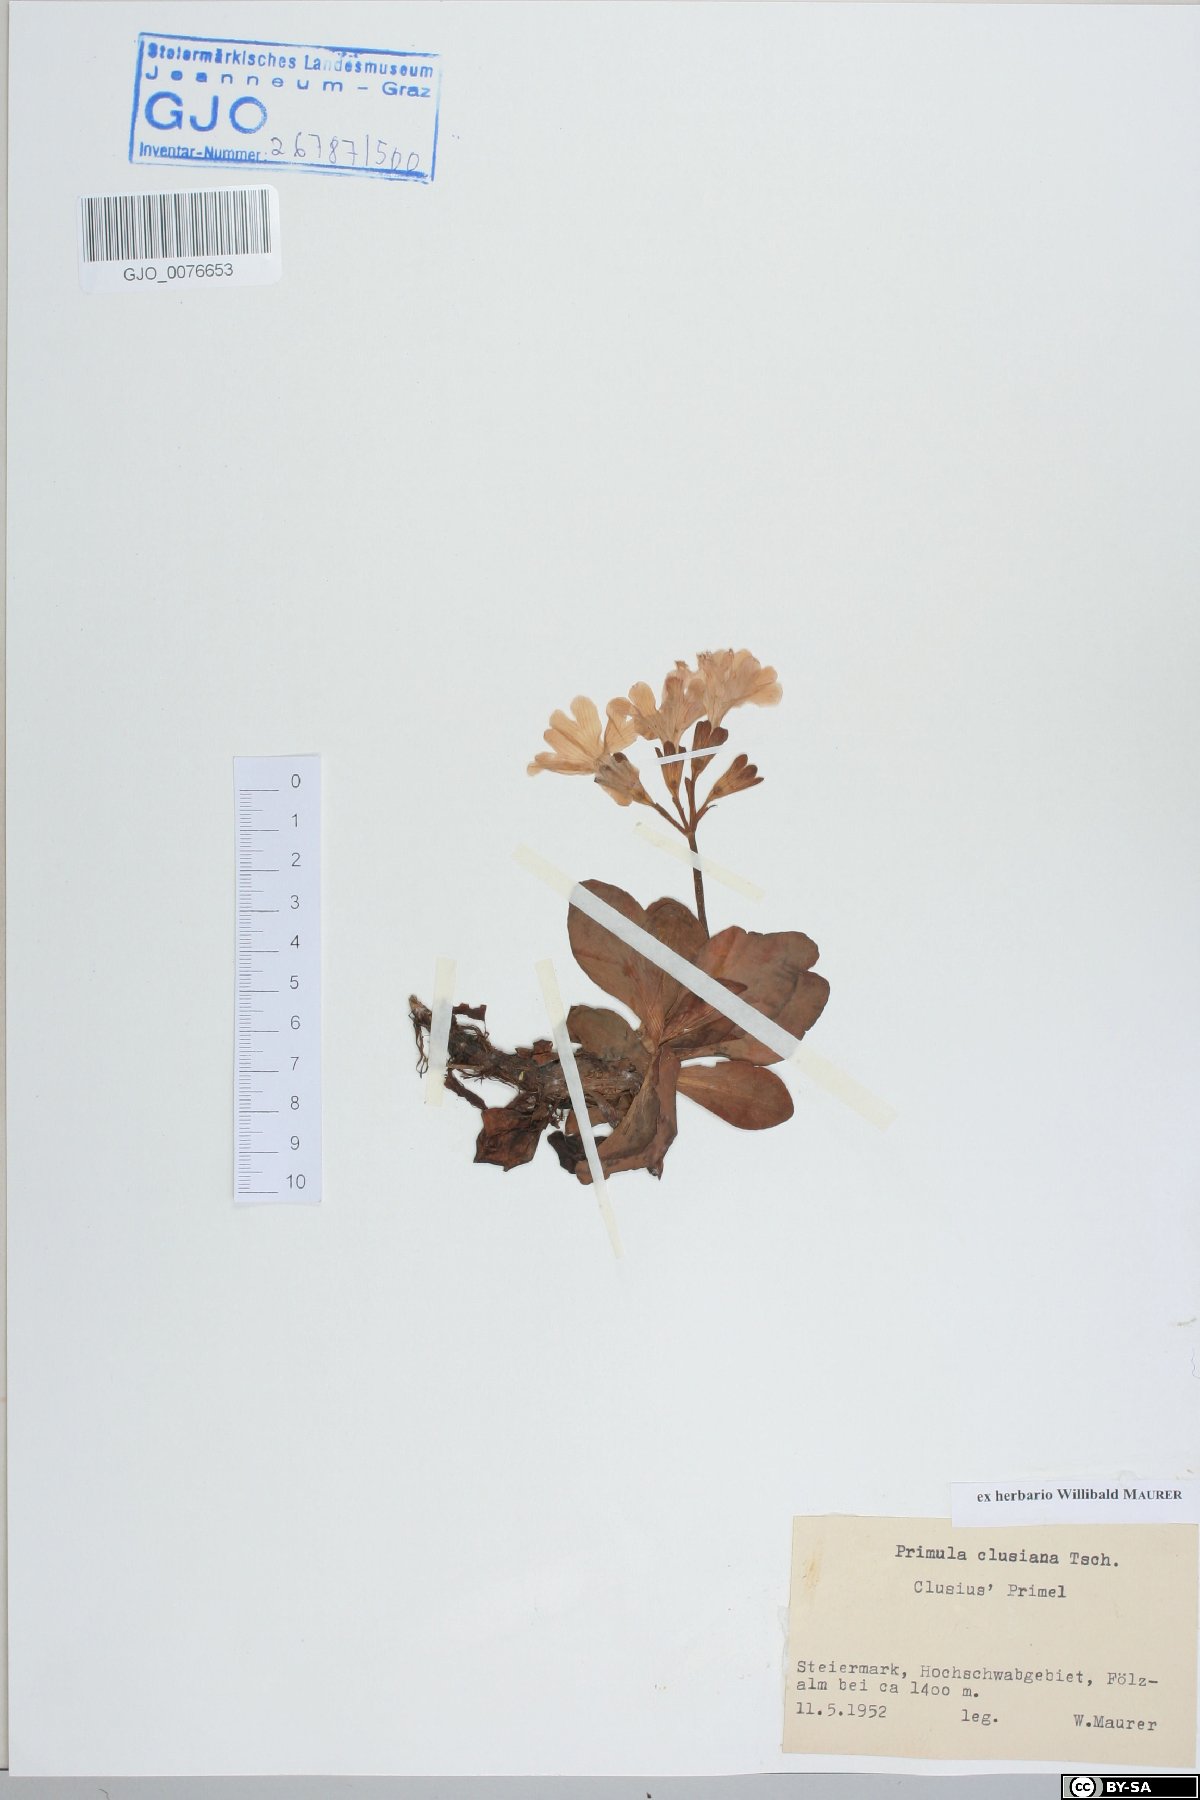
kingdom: Plantae
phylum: Tracheophyta
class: Magnoliopsida
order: Ericales
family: Primulaceae
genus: Primula
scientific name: Primula clusiana
